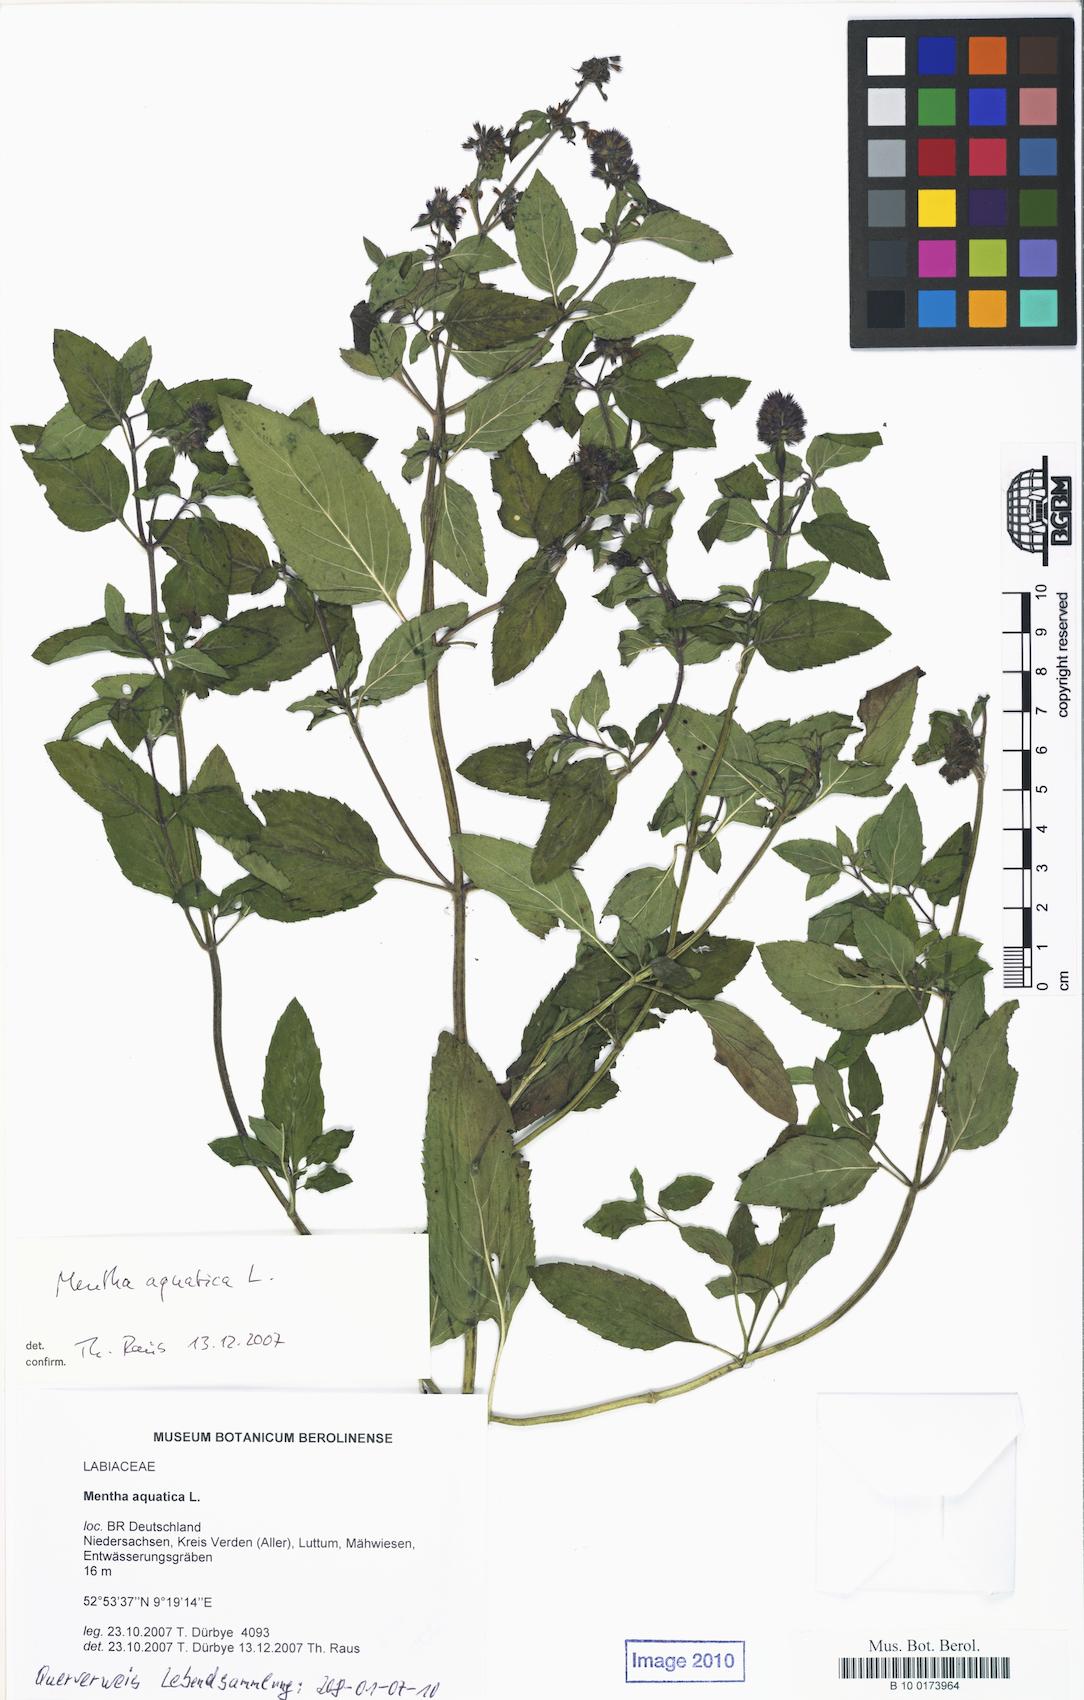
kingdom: Plantae
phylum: Tracheophyta
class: Magnoliopsida
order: Lamiales
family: Lamiaceae
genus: Mentha
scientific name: Mentha aquatica
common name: Water mint
